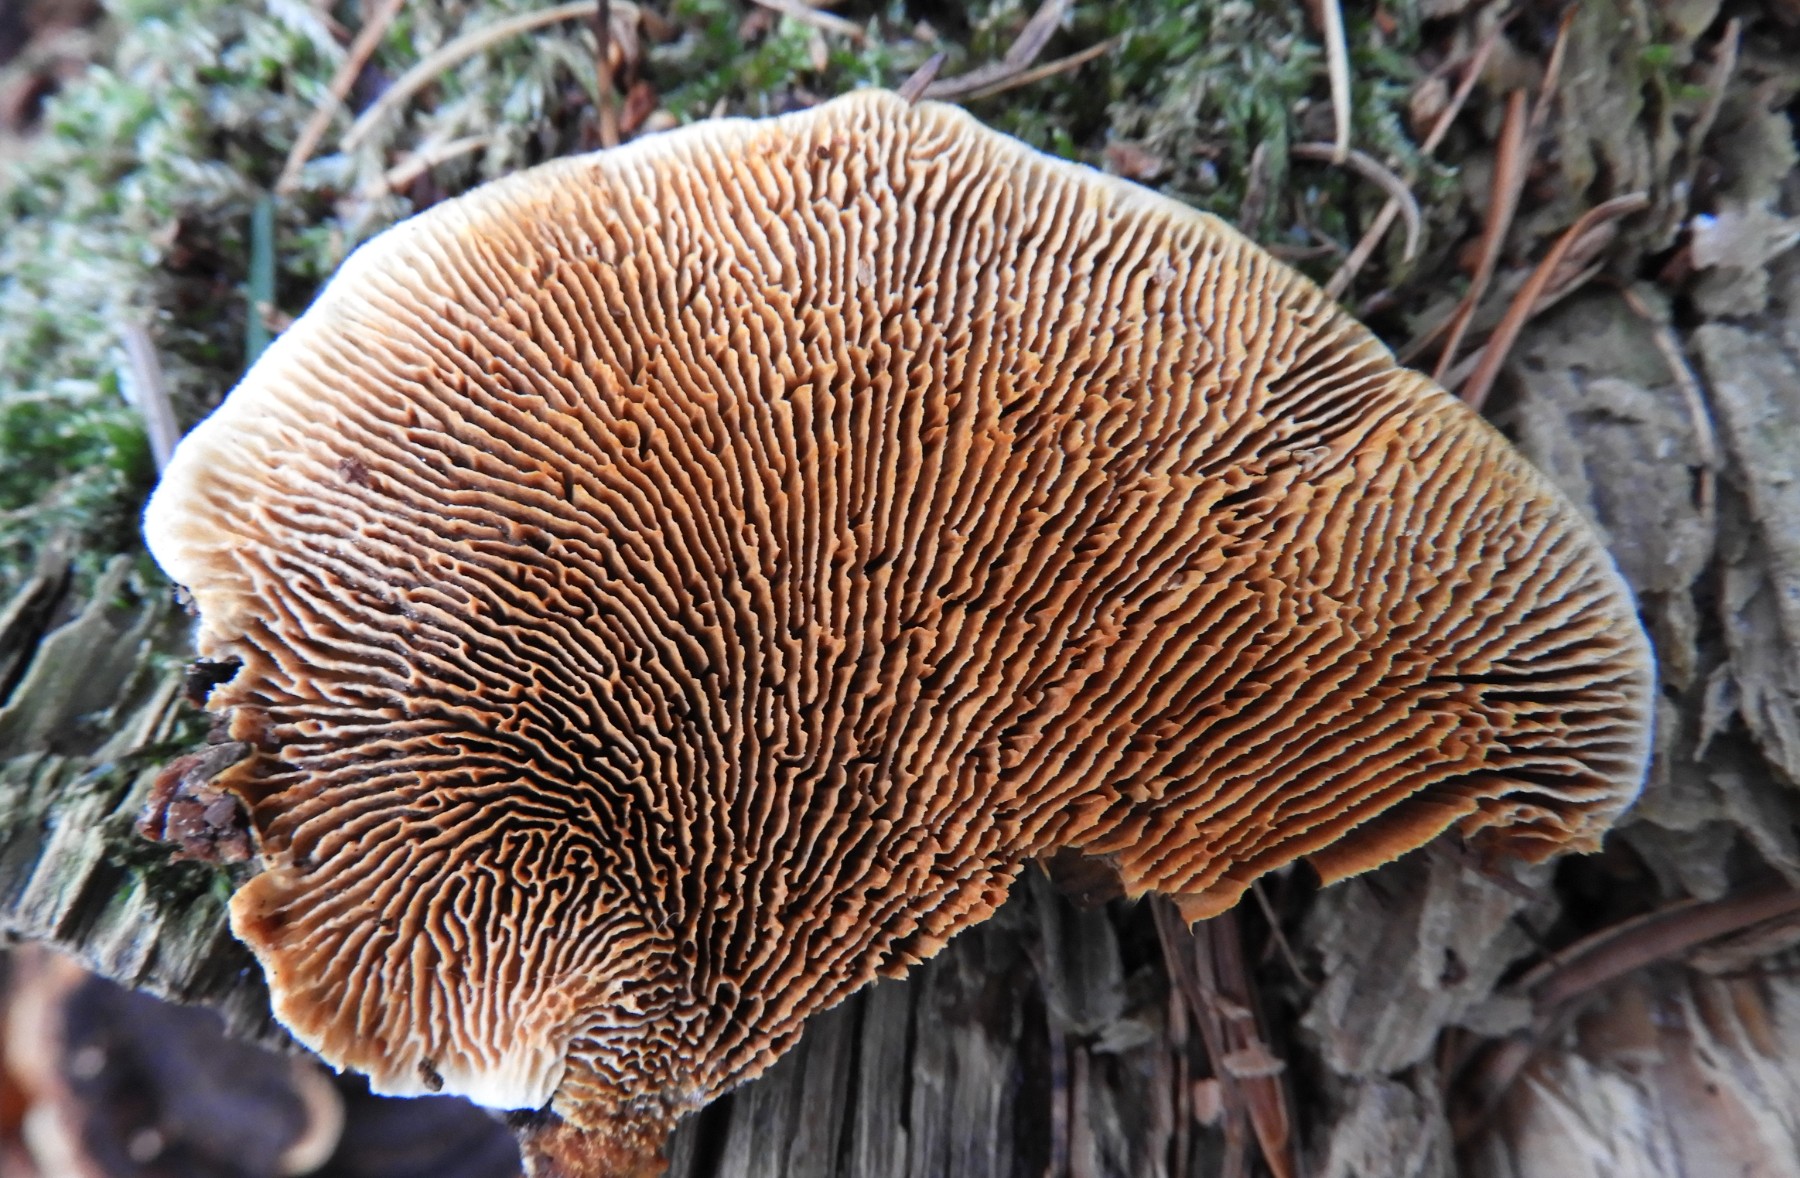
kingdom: Fungi
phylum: Basidiomycota
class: Agaricomycetes
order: Gloeophyllales
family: Gloeophyllaceae
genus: Gloeophyllum
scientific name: Gloeophyllum sepiarium
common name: fyrre-korkhat
